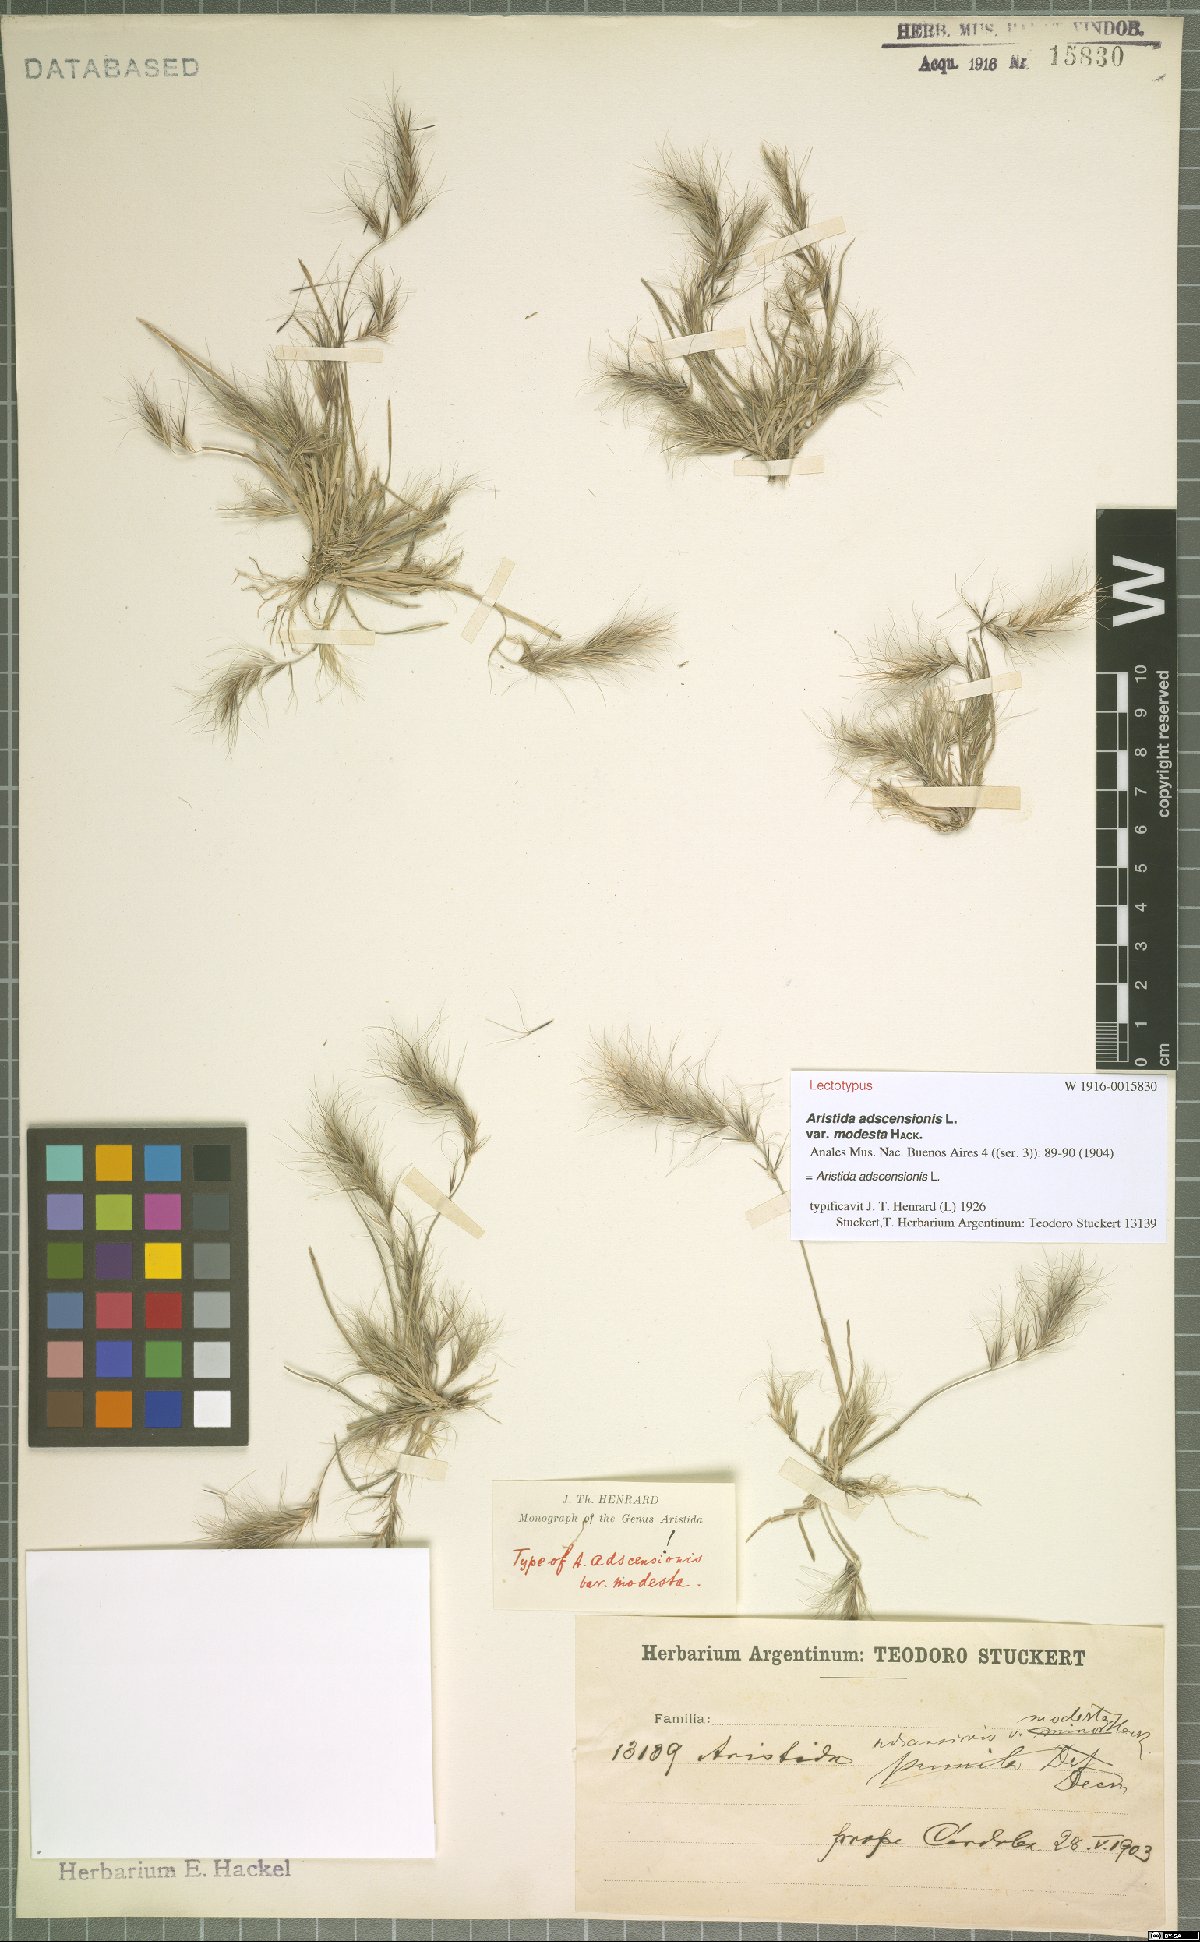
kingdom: Plantae
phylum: Tracheophyta
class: Liliopsida
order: Poales
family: Poaceae
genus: Aristida
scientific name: Aristida adscensionis
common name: Sixweeks threeawn
